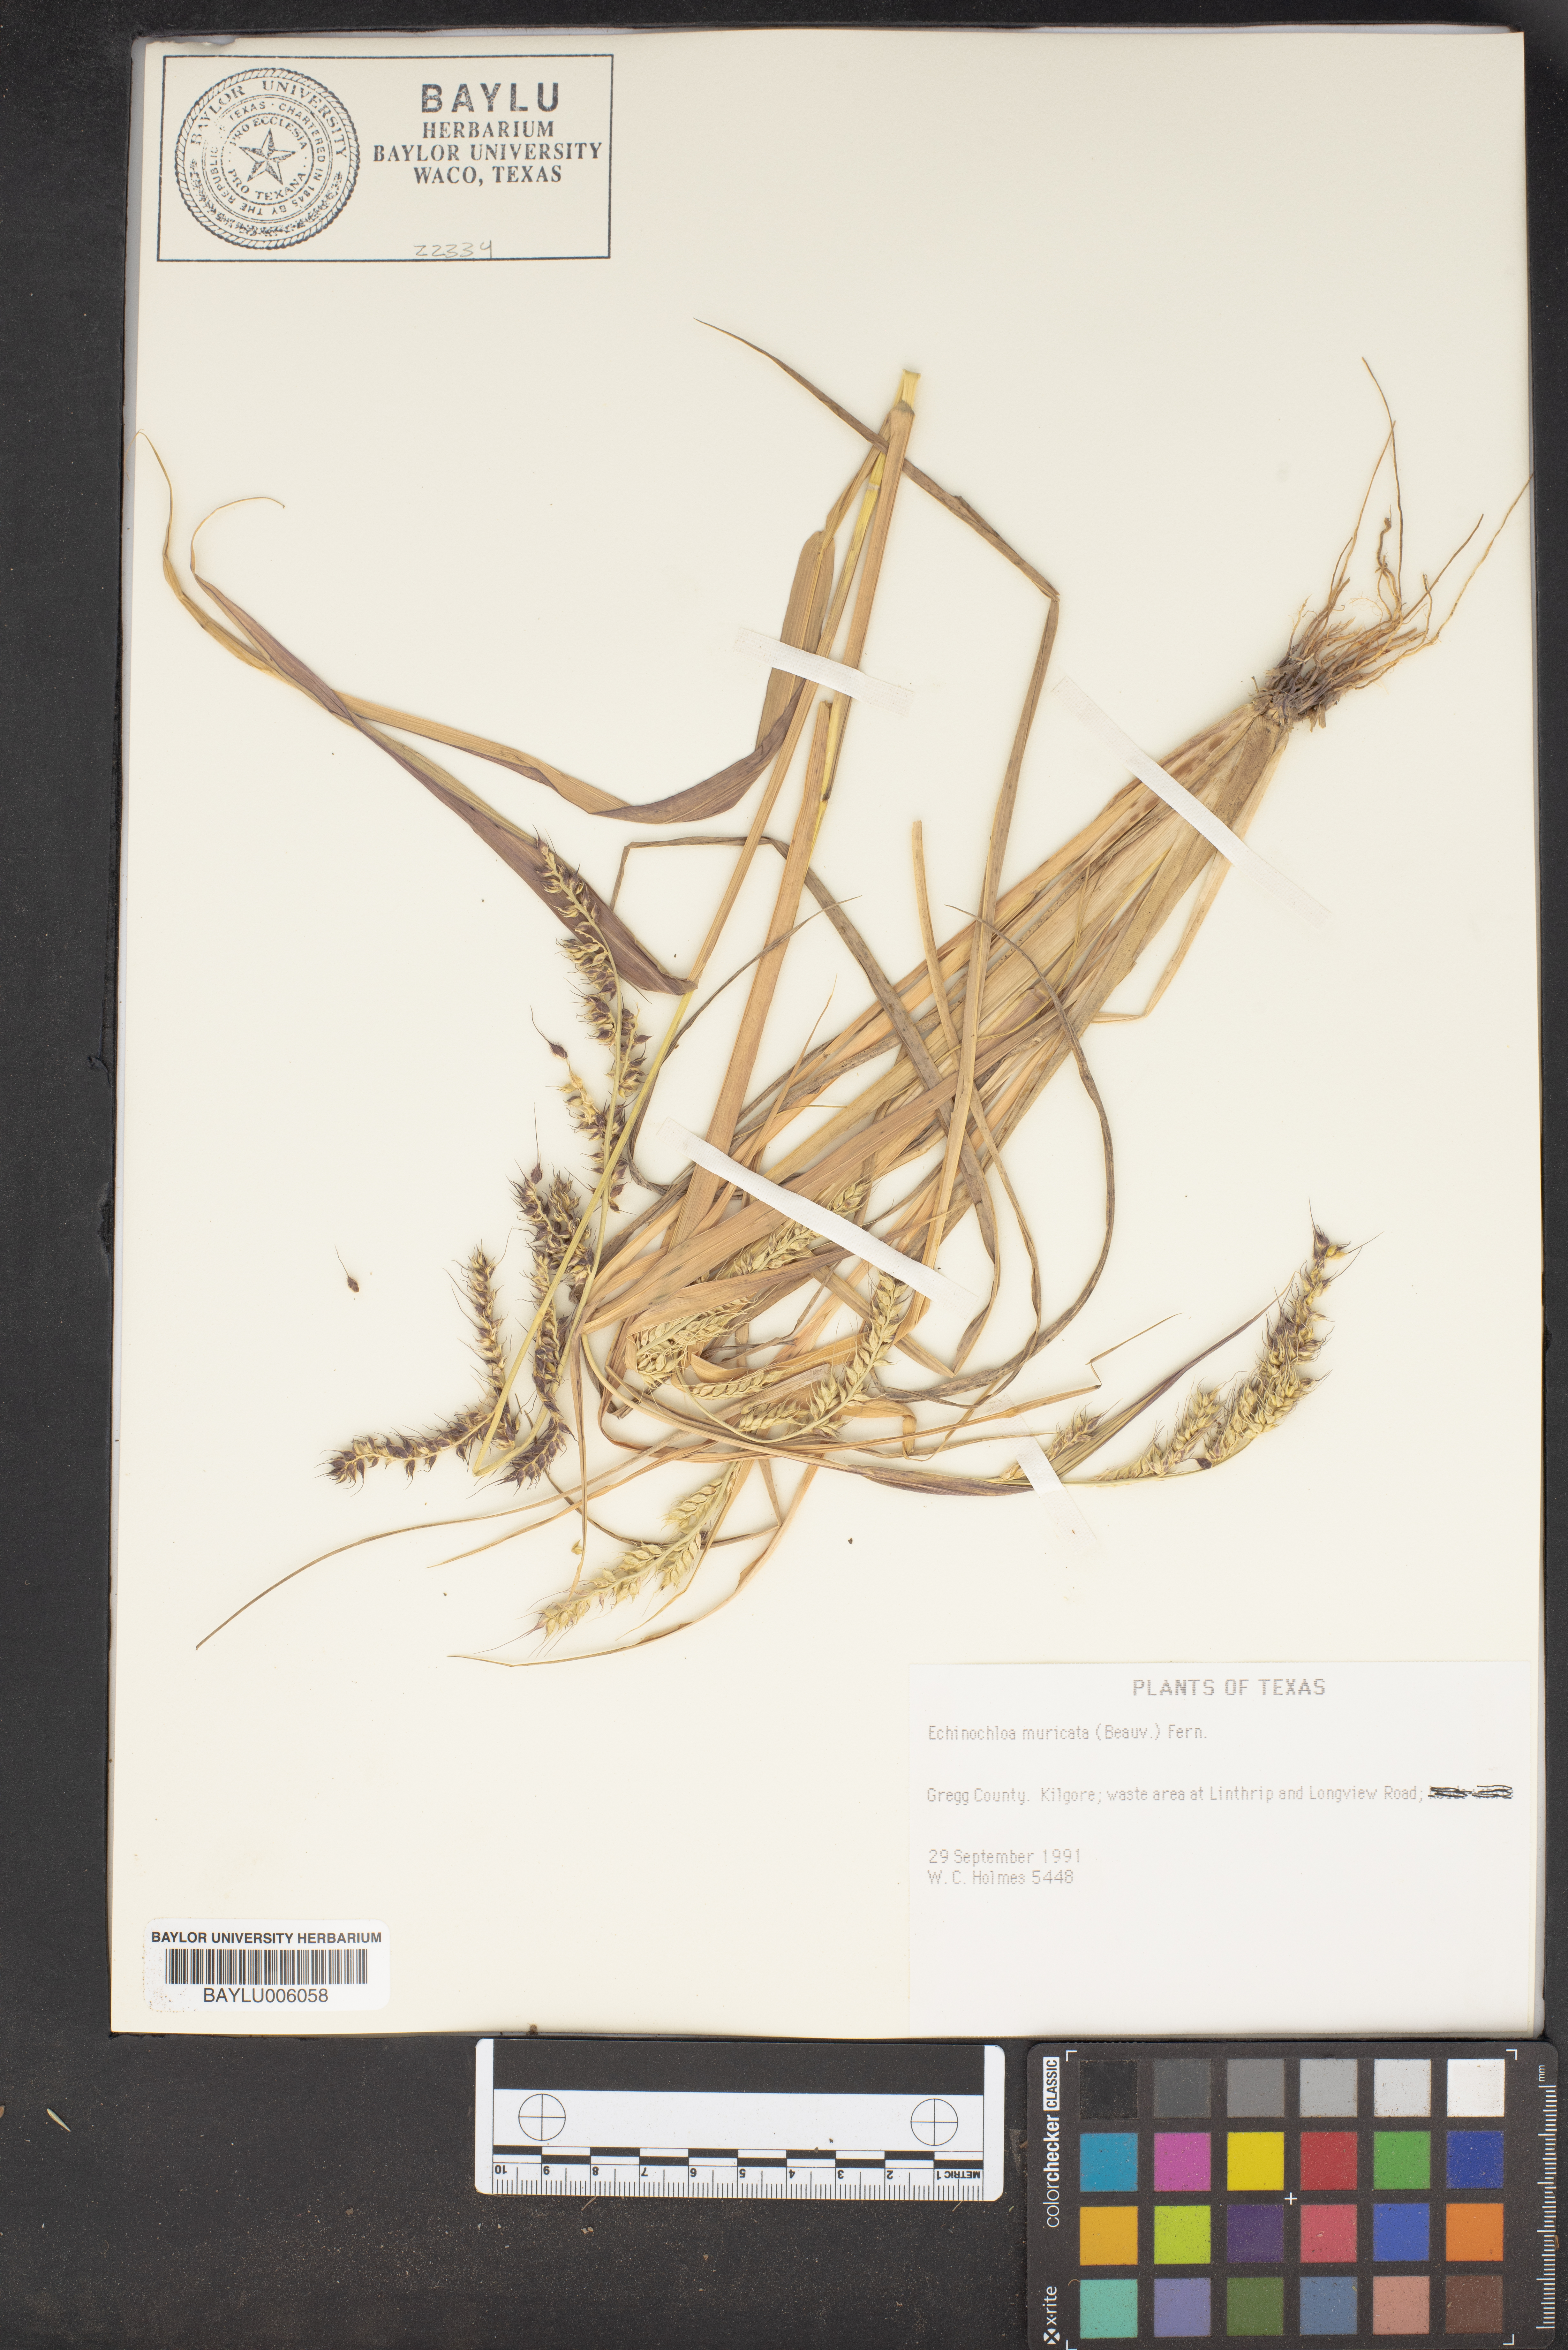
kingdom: Plantae
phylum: Tracheophyta
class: Liliopsida
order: Poales
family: Poaceae
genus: Echinochloa
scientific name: Echinochloa muricata
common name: American barnyard grass
